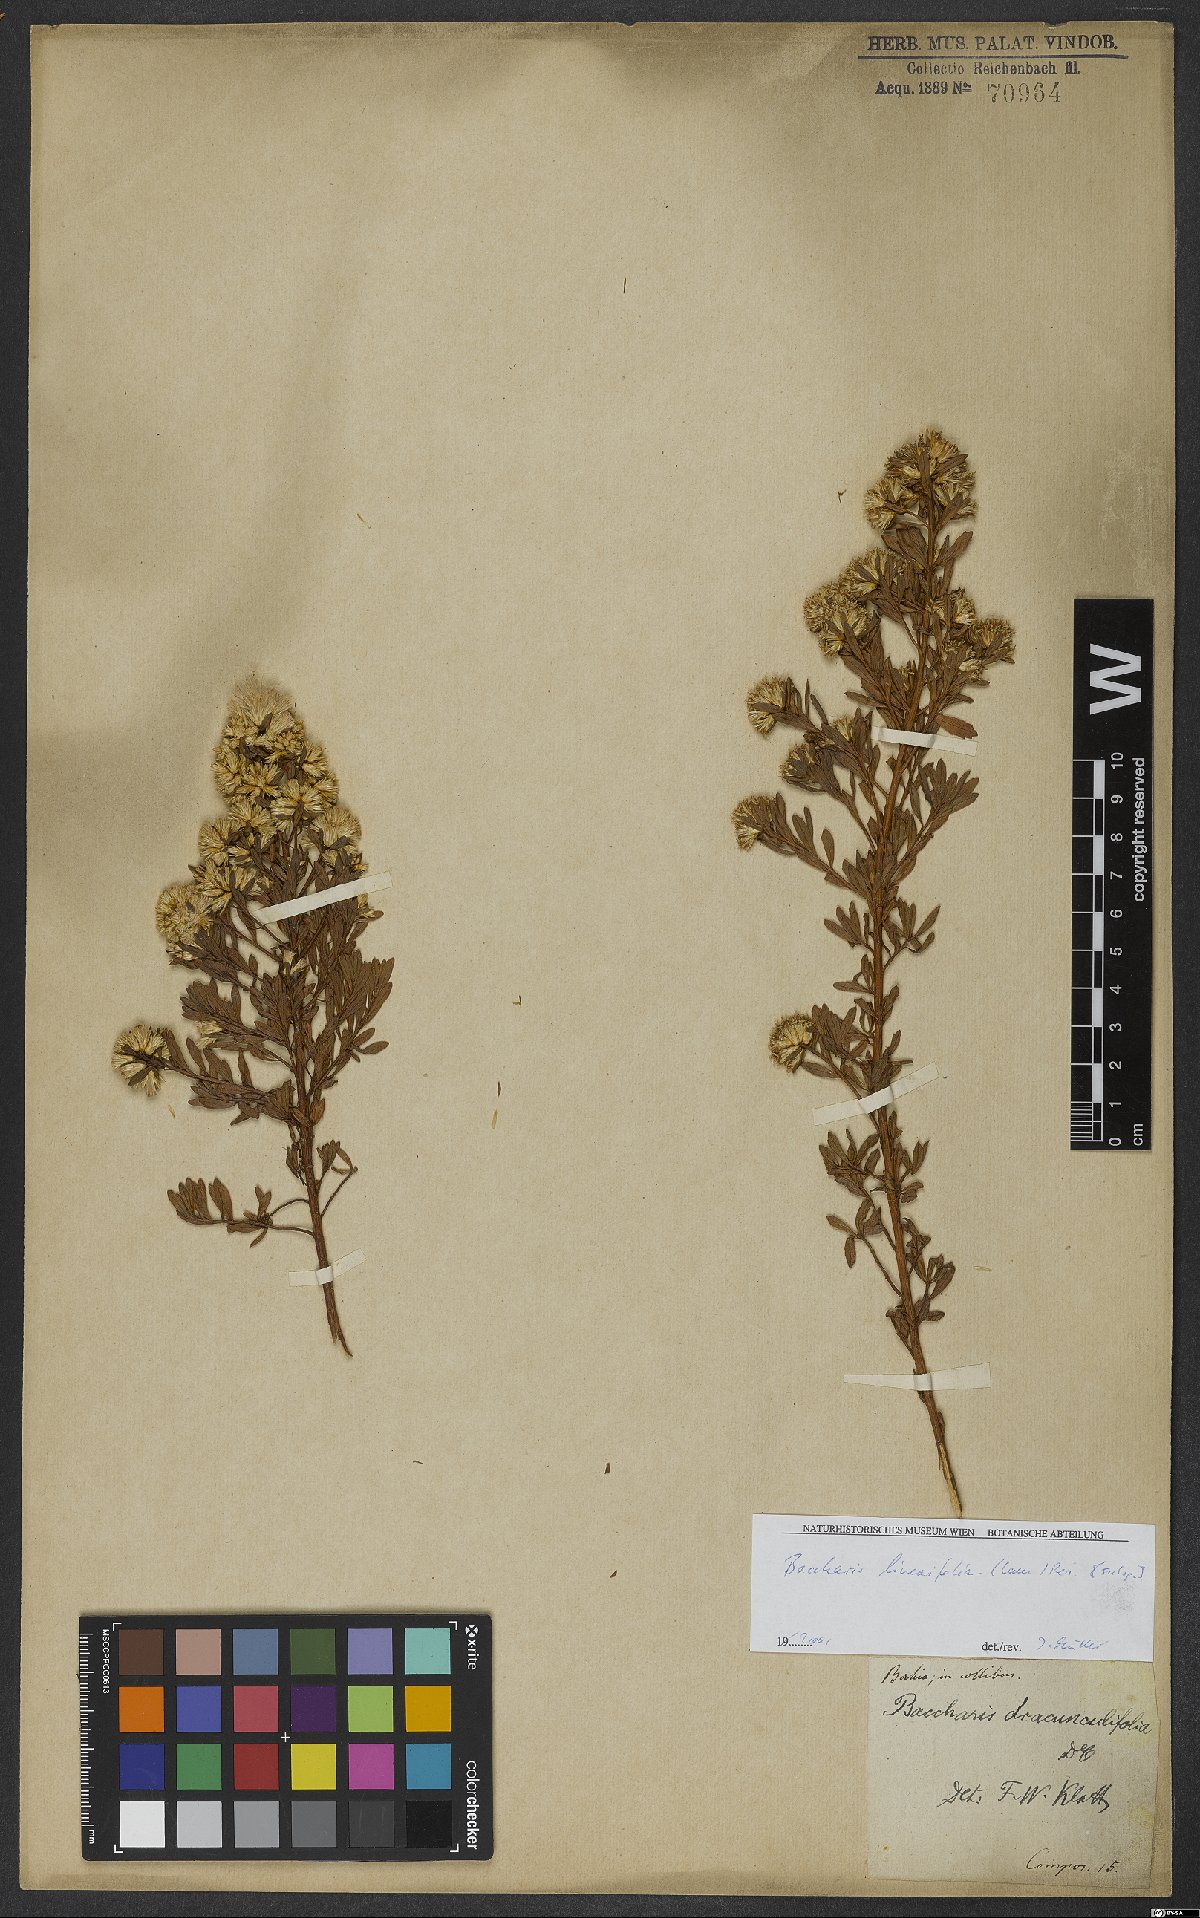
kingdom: Plantae
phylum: Tracheophyta
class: Magnoliopsida
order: Asterales
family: Asteraceae
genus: Baccharis
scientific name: Baccharis linearifolia
